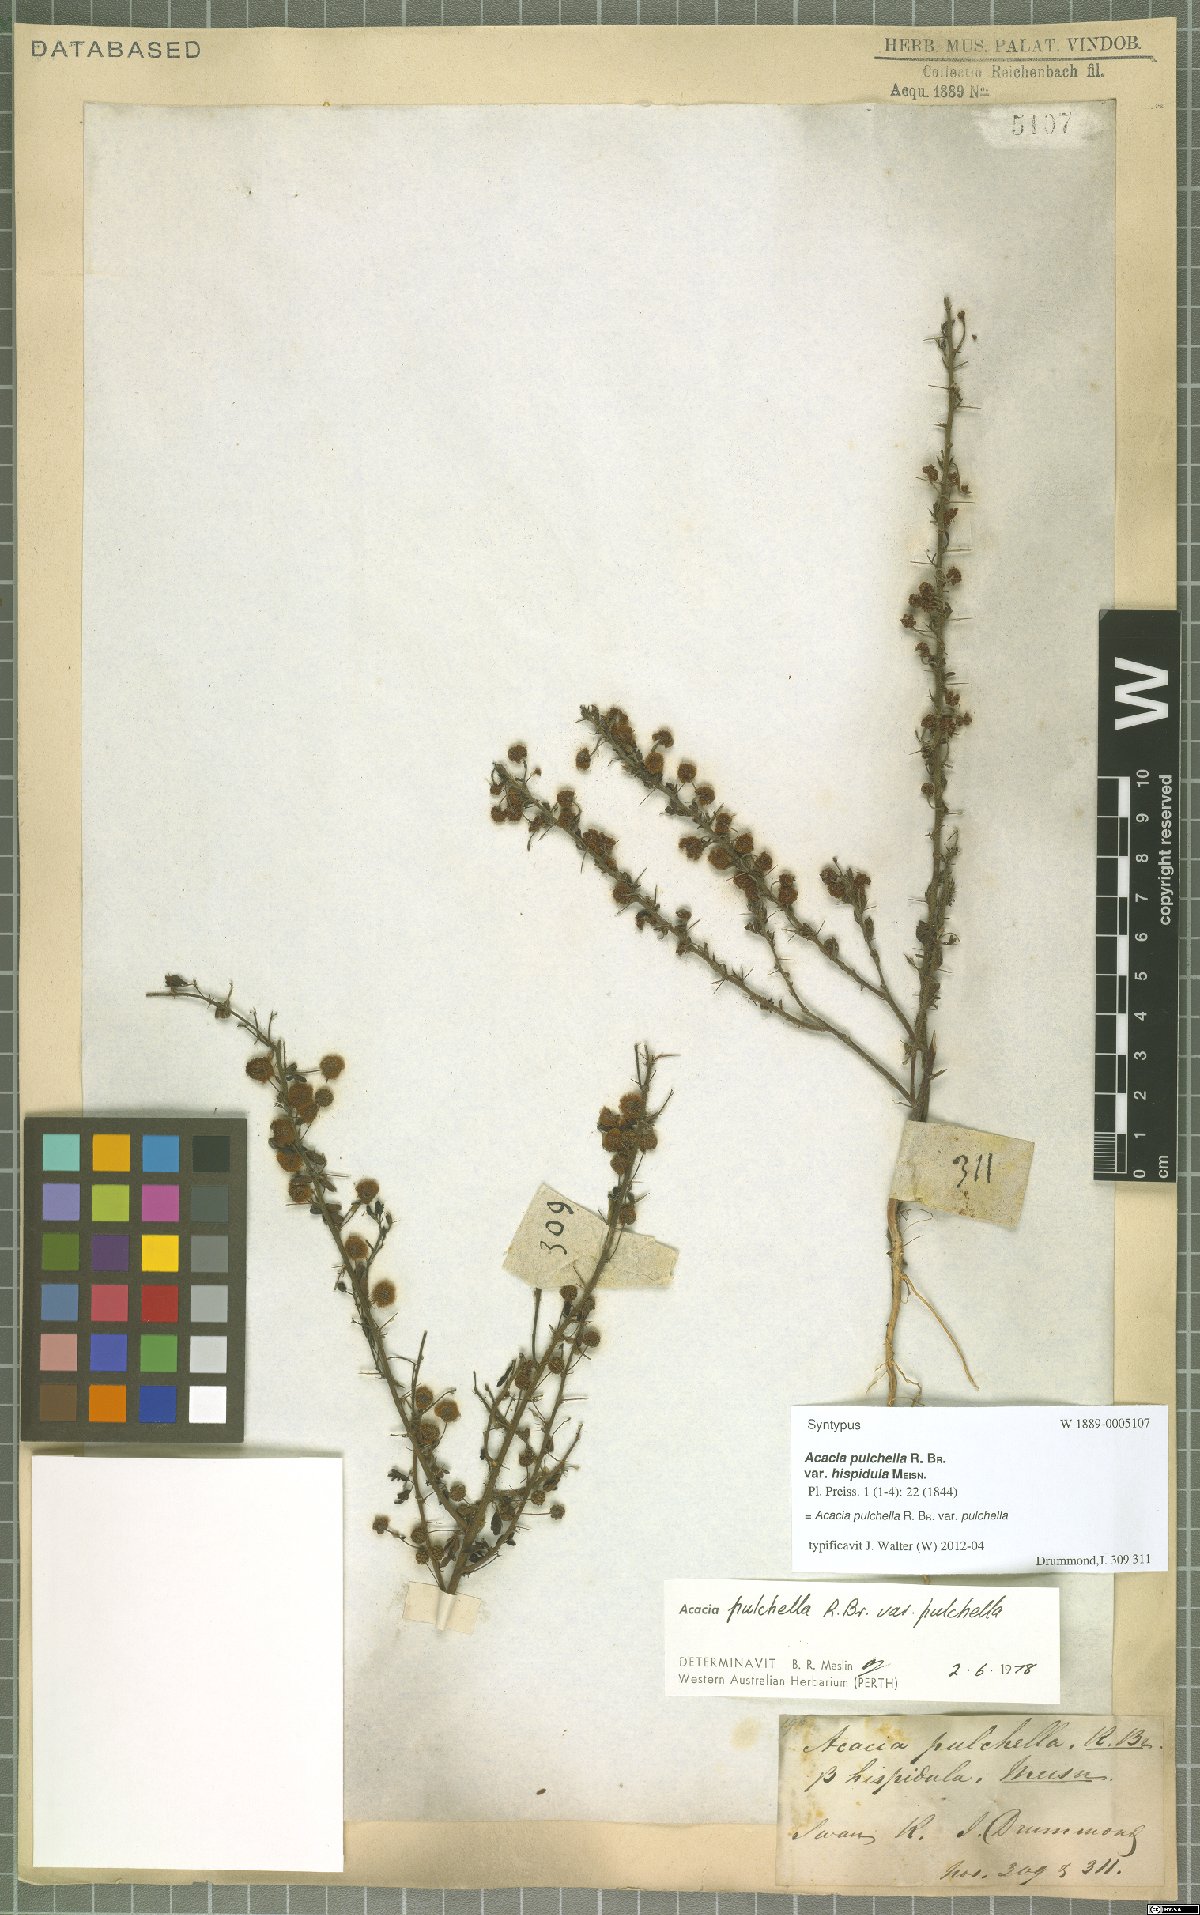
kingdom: Plantae
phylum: Tracheophyta
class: Magnoliopsida
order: Fabales
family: Fabaceae
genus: Acacia
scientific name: Acacia pulchella
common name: Prickly moses
